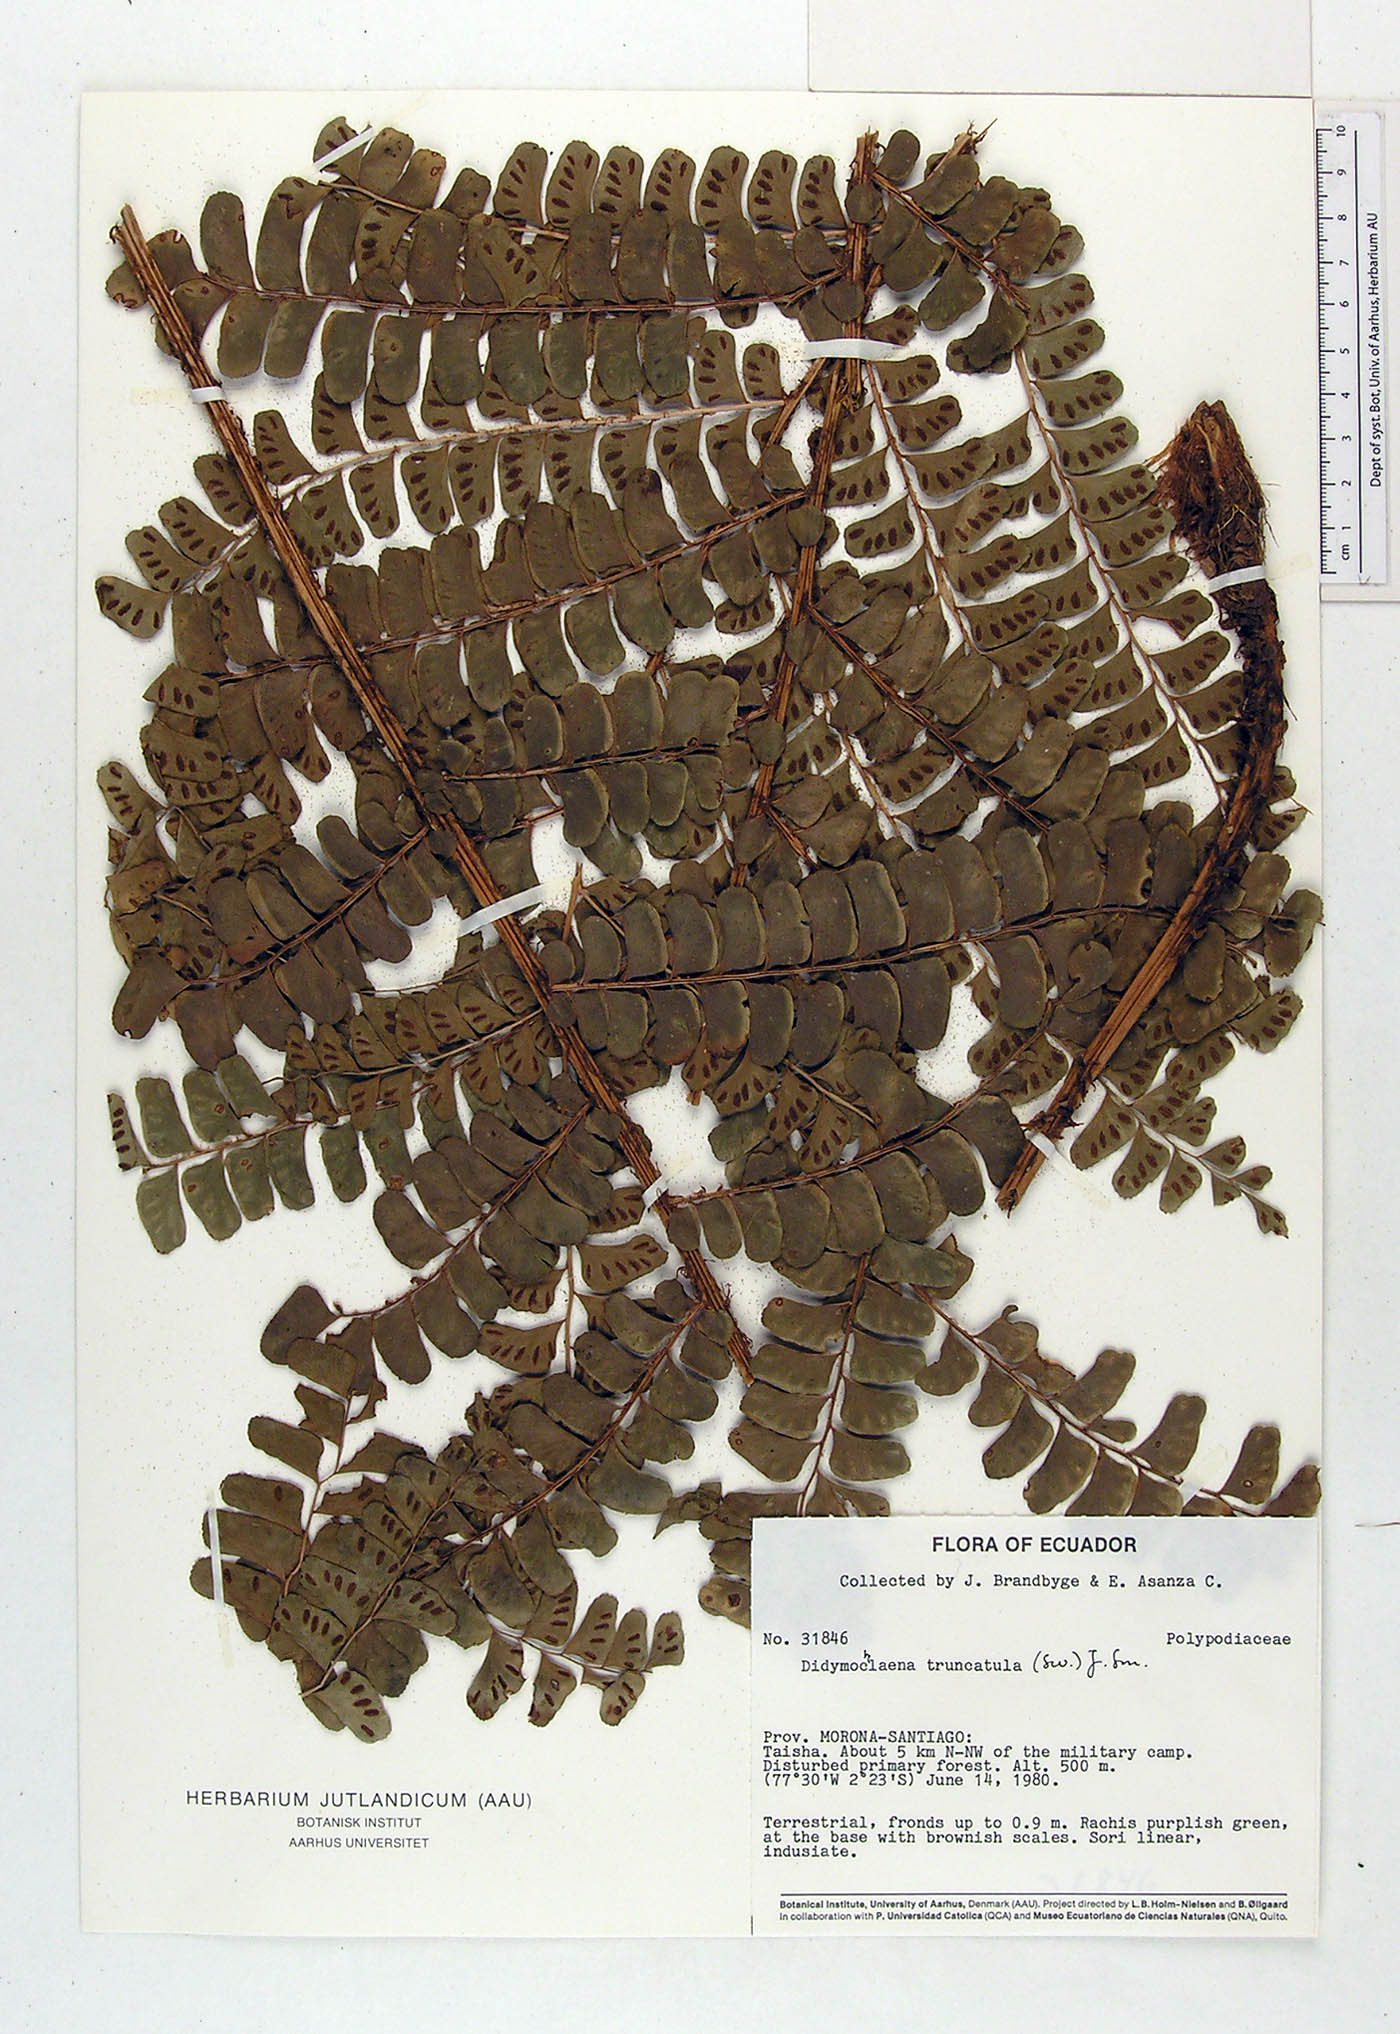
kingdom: Plantae
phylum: Tracheophyta
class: Polypodiopsida
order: Polypodiales
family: Didymochlaenaceae
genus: Didymochlaena
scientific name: Didymochlaena truncatula
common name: Mahogany fern
